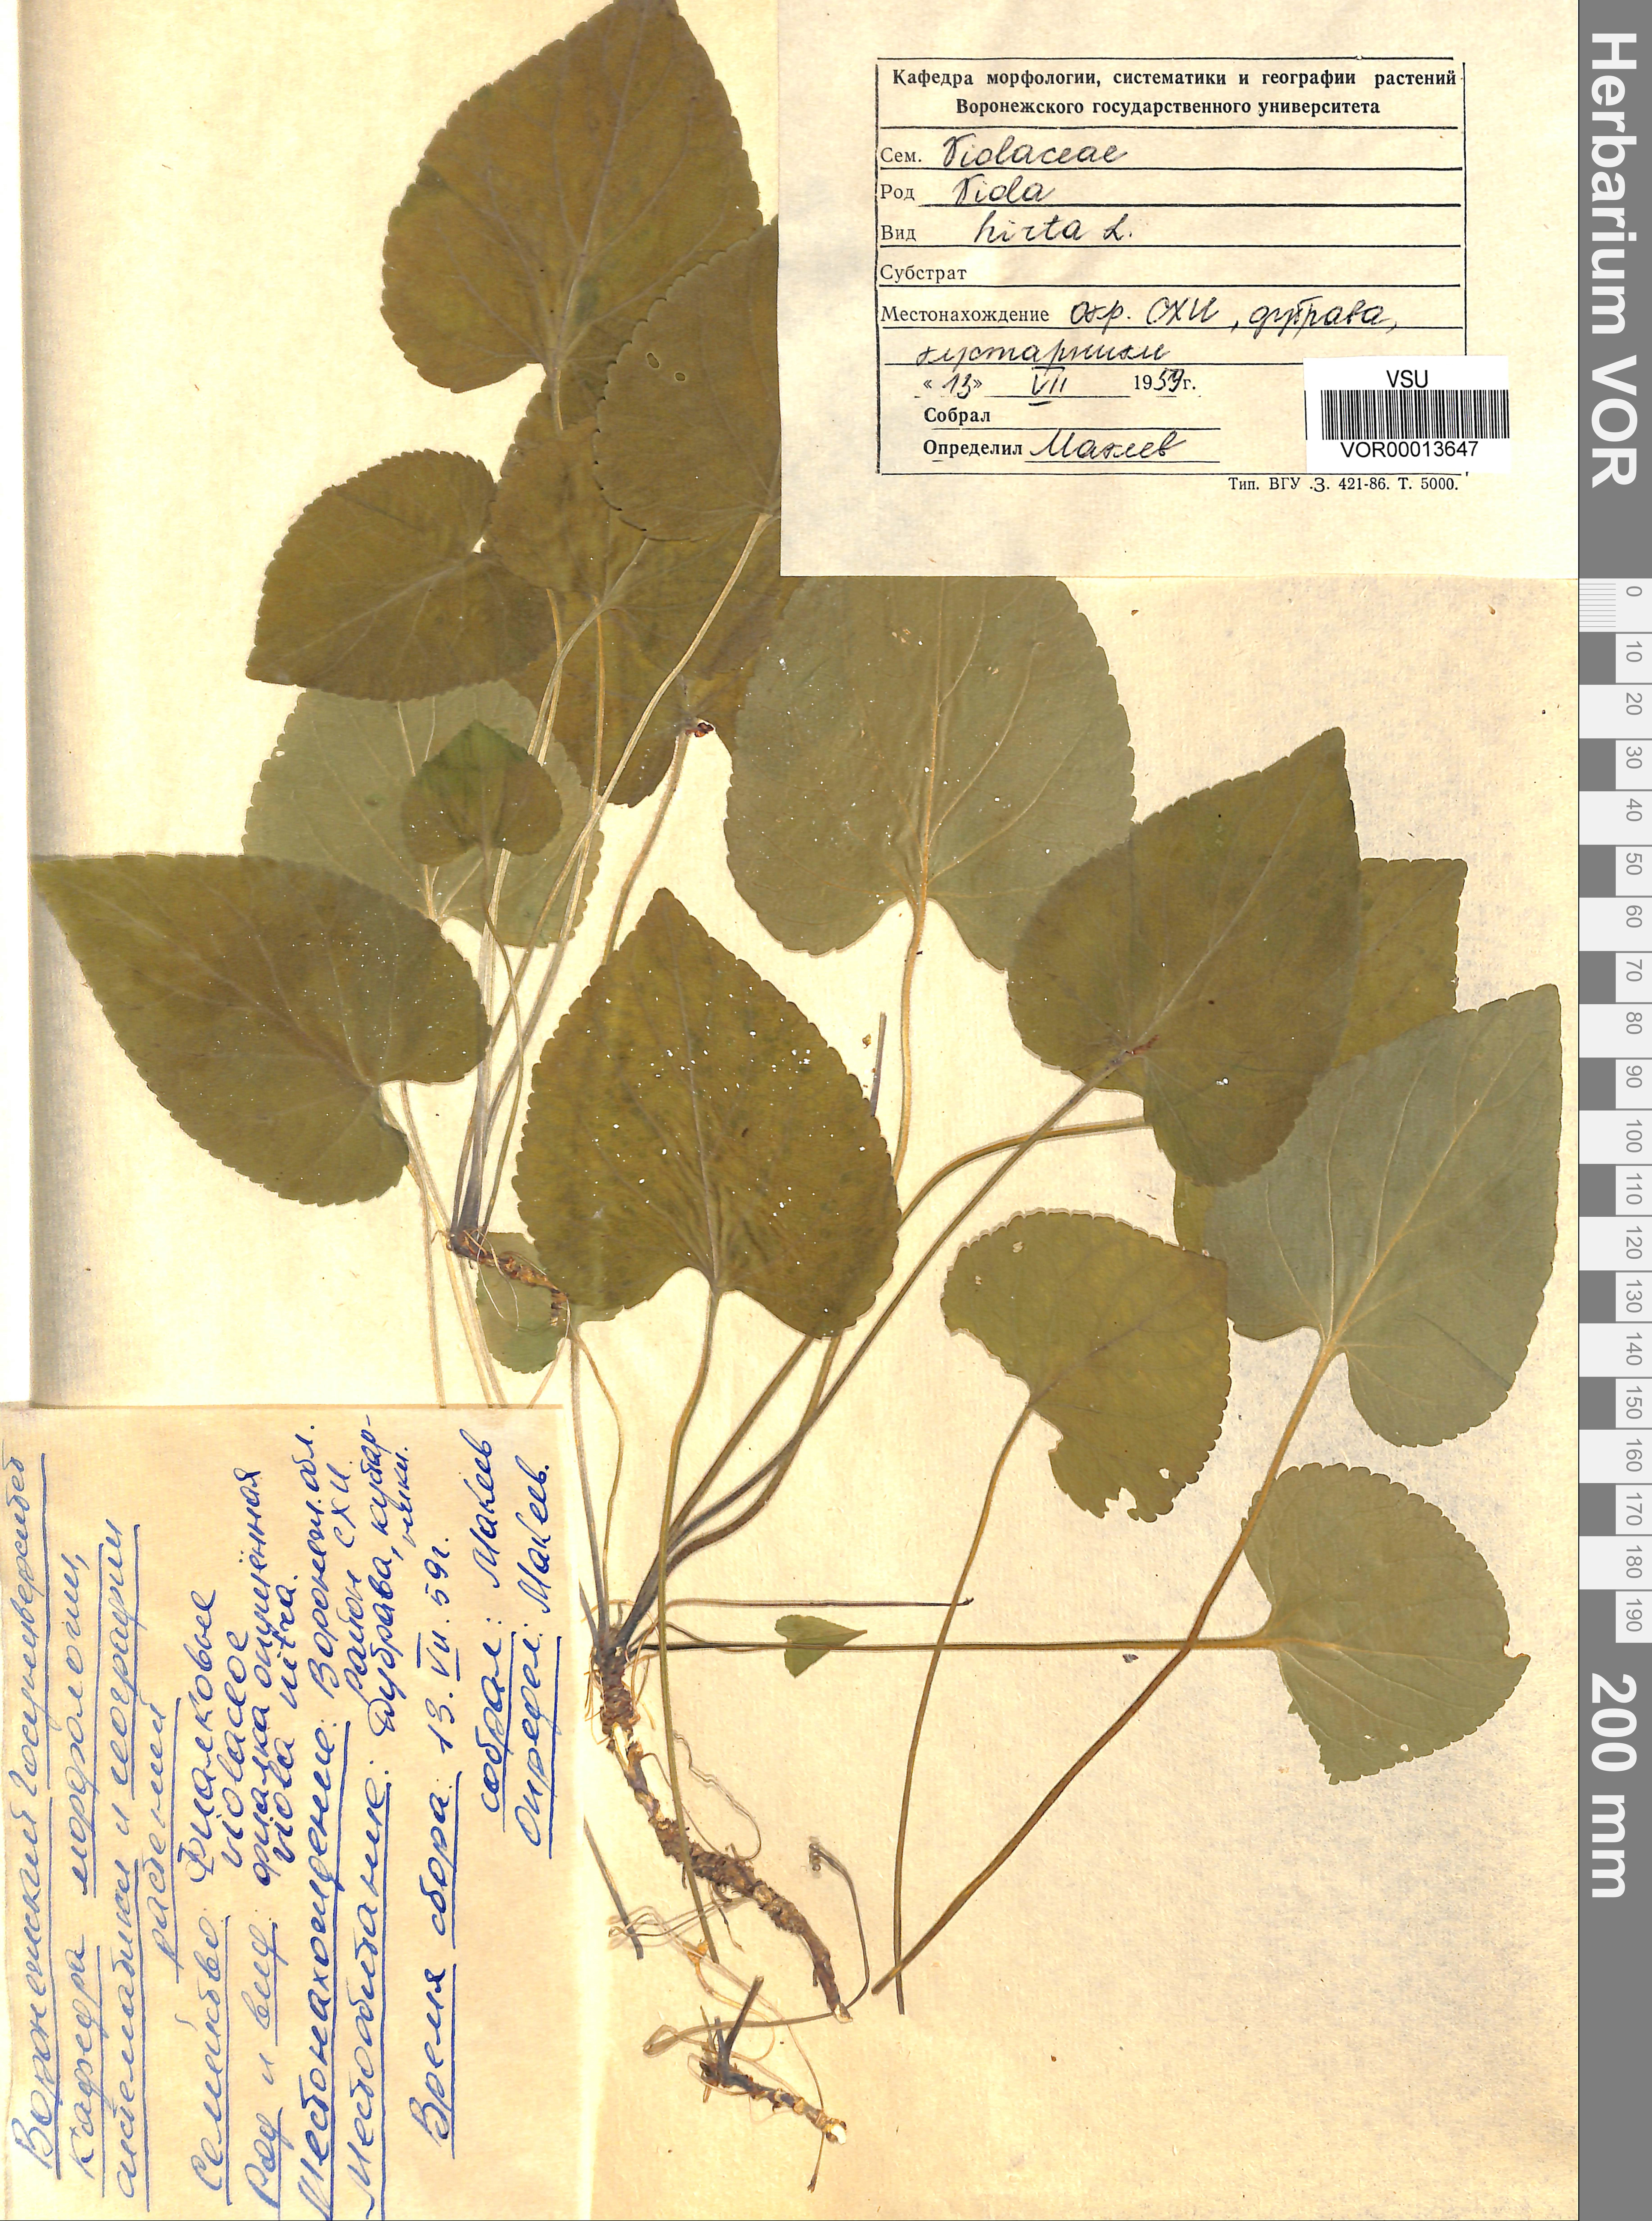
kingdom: Plantae
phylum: Tracheophyta
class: Magnoliopsida
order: Malpighiales
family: Violaceae
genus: Viola
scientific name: Viola hirta
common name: Hairy violet
